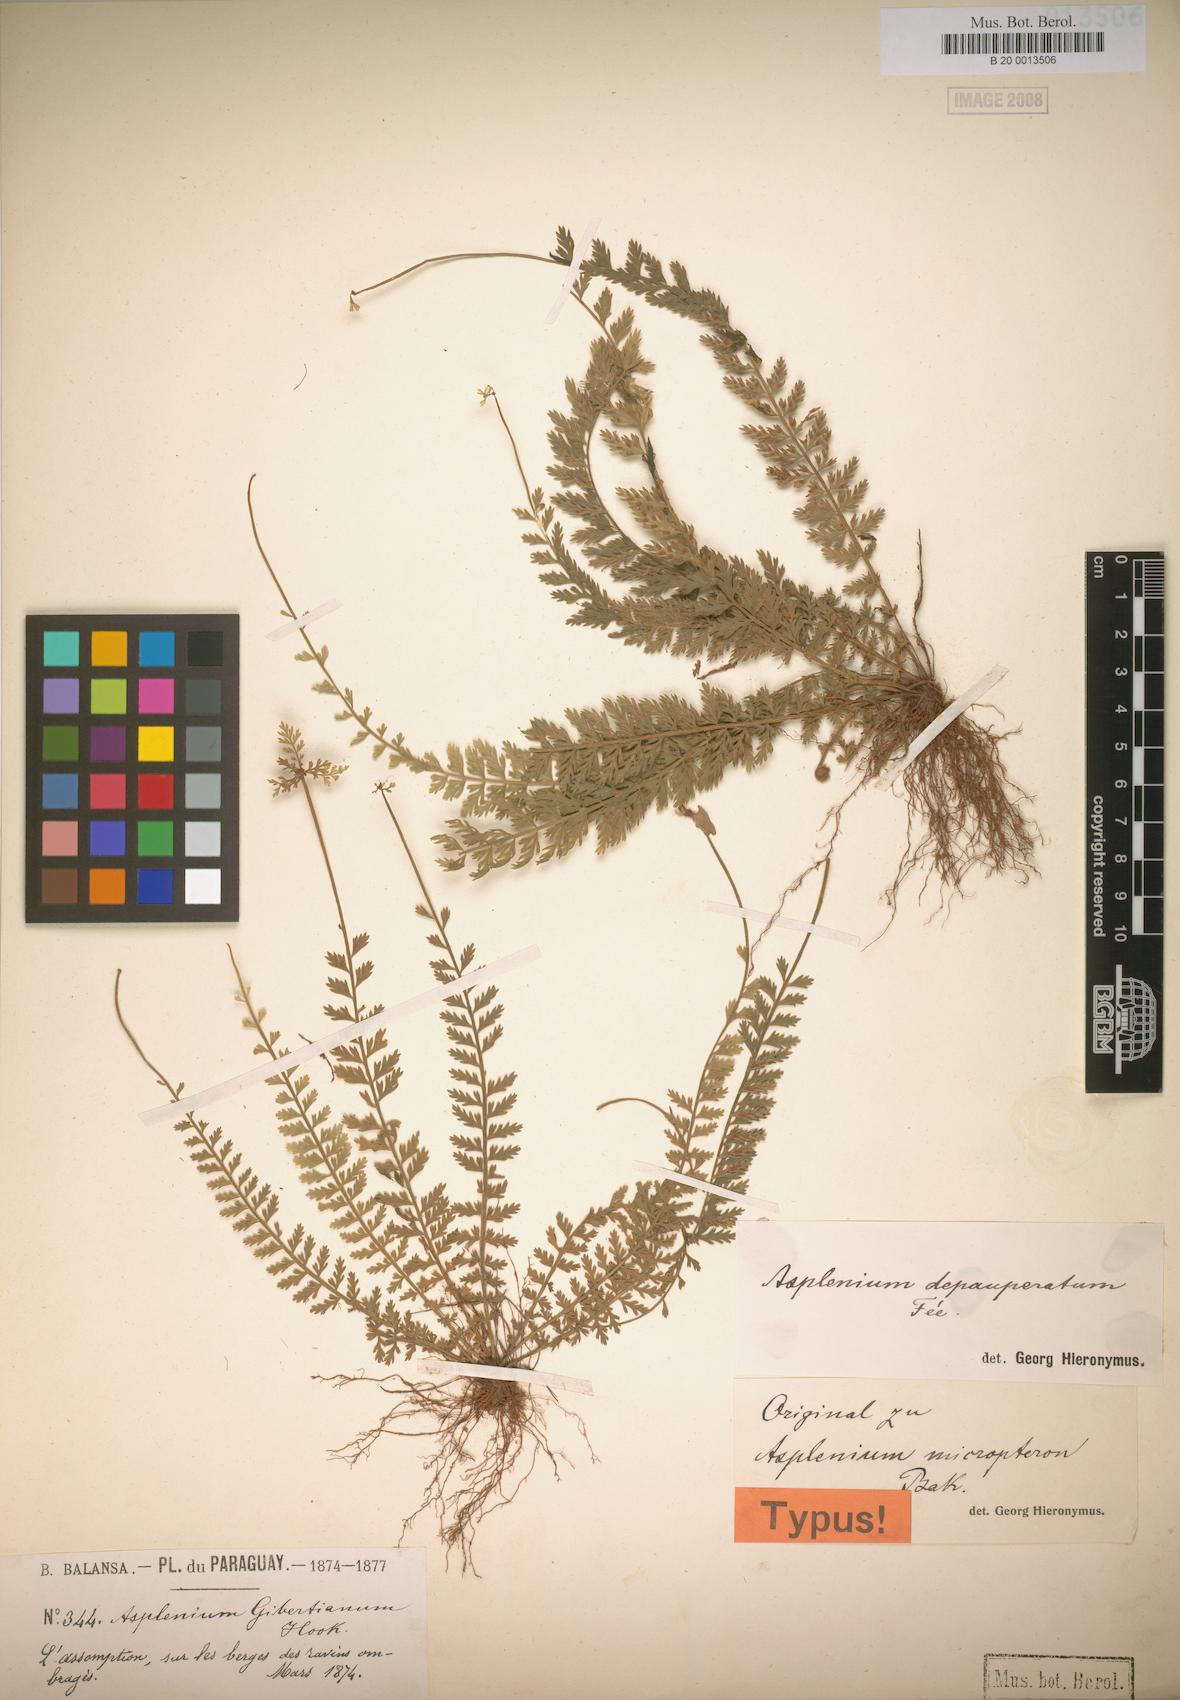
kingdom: Plantae
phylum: Tracheophyta
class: Polypodiopsida
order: Polypodiales
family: Aspleniaceae
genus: Asplenium
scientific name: Asplenium depauperatum
